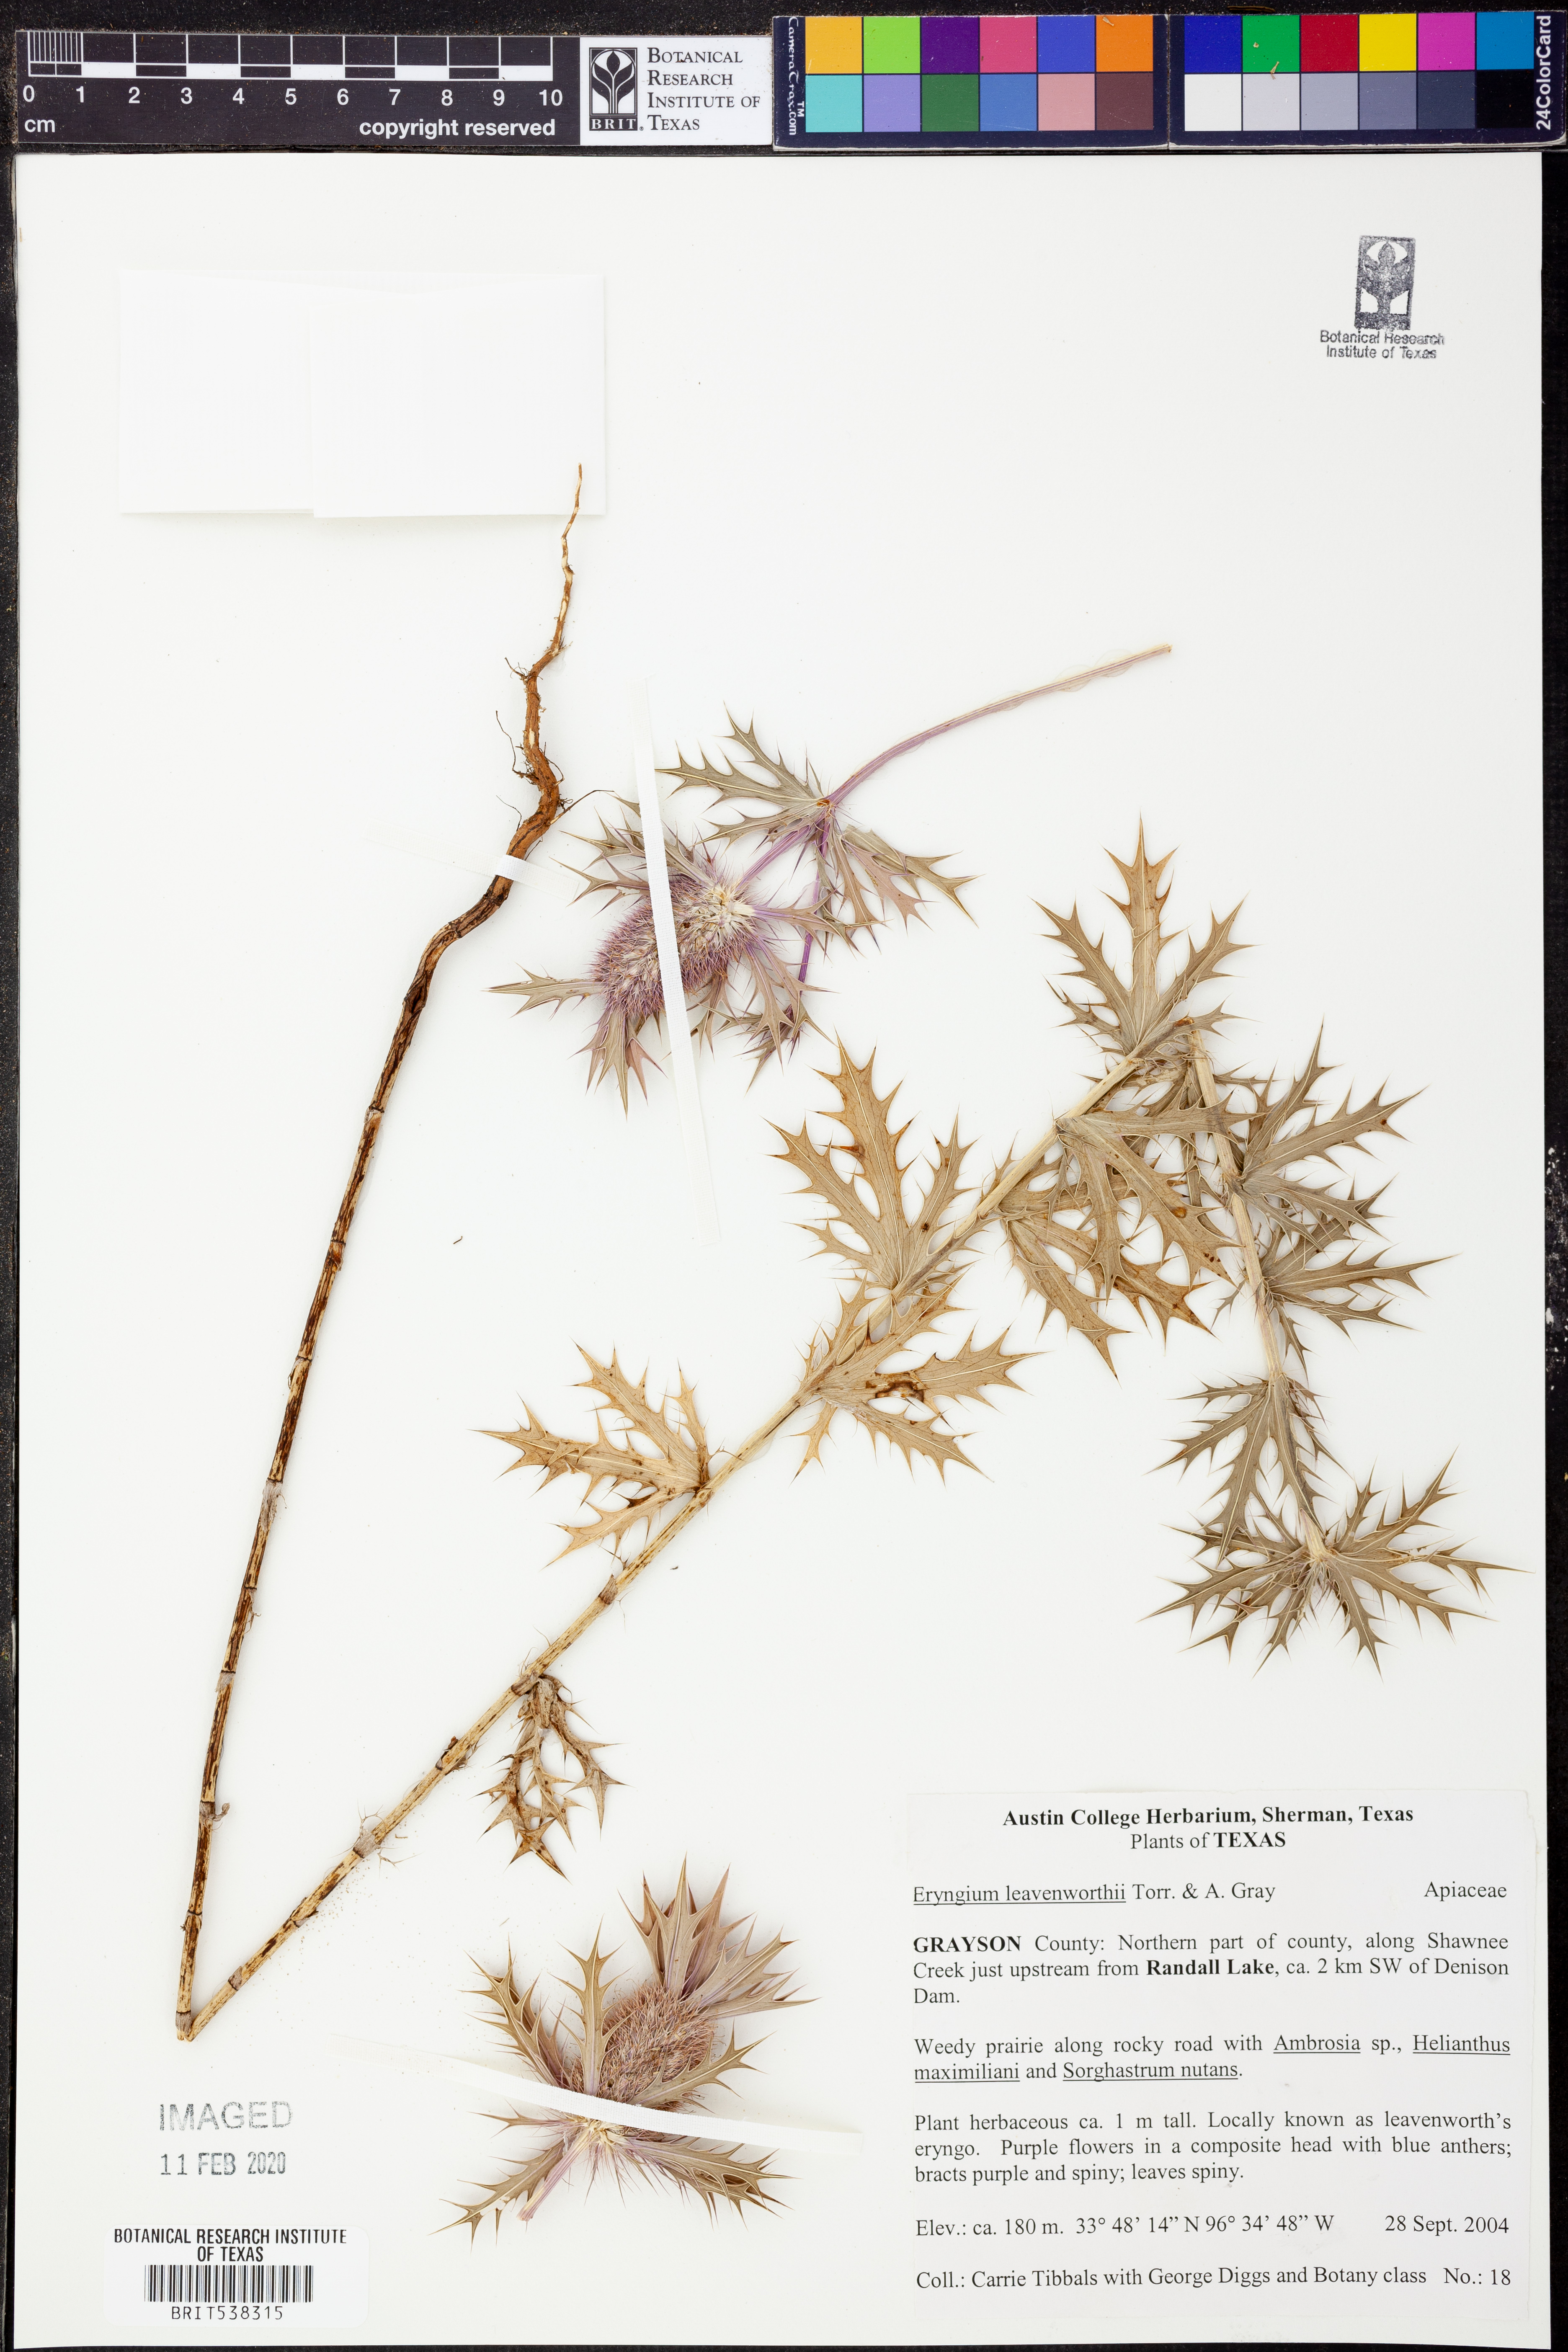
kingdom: Plantae
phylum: Tracheophyta
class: Magnoliopsida
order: Apiales
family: Apiaceae
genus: Eryngium
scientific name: Eryngium leavenworthii
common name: Leavenworth's eryngo
